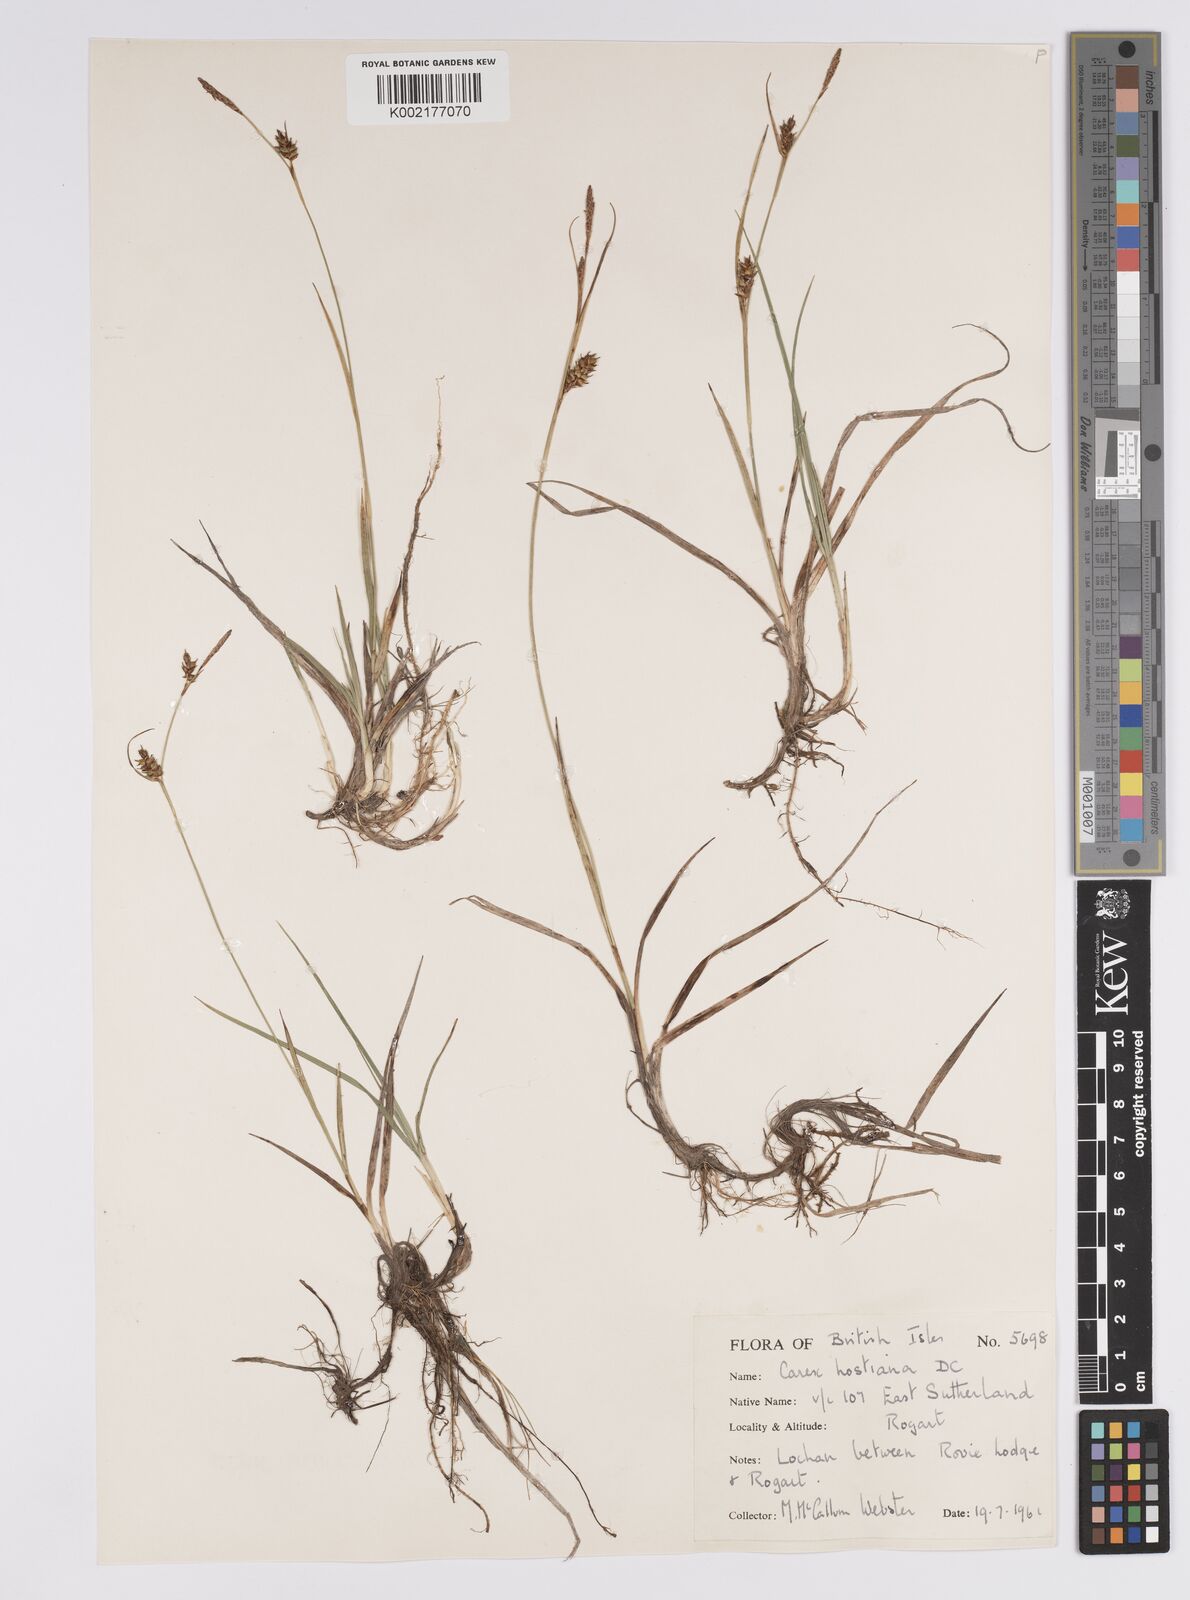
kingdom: Plantae
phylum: Tracheophyta
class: Liliopsida
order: Poales
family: Cyperaceae
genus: Carex
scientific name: Carex hostiana
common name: Tawny sedge
